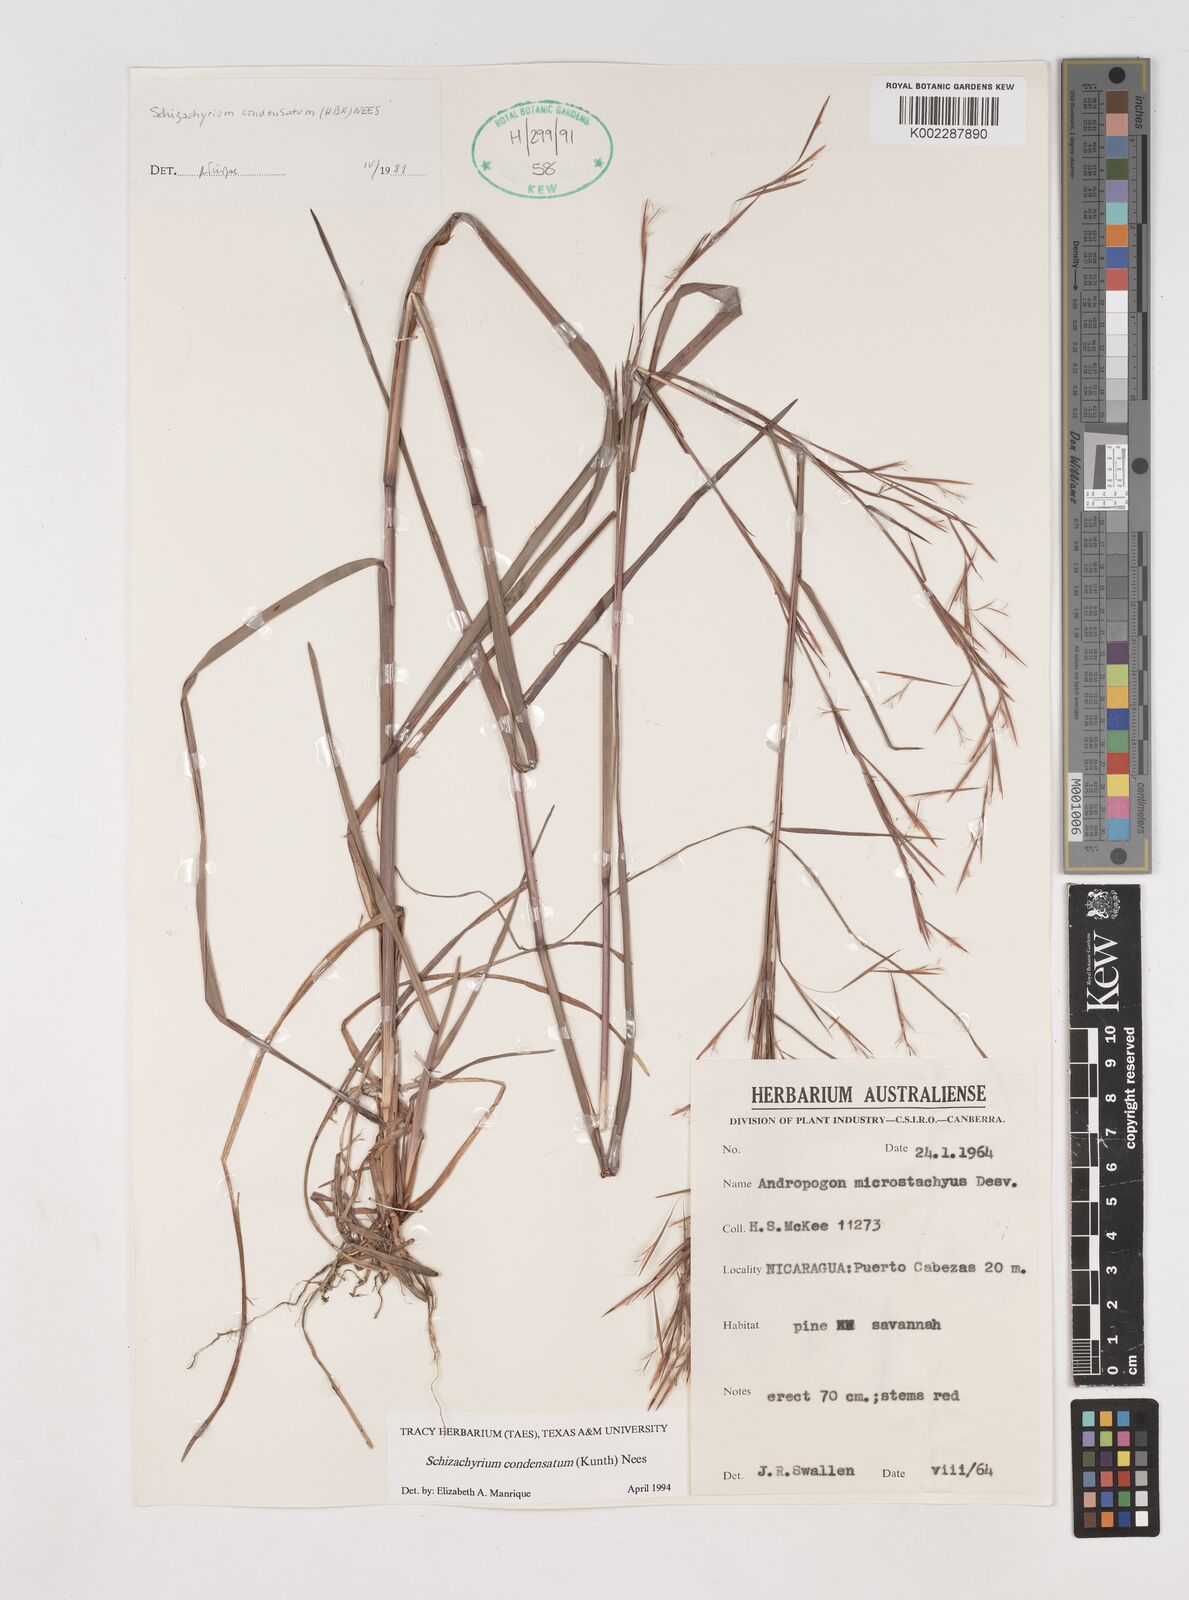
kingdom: Plantae
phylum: Tracheophyta
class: Liliopsida
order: Poales
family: Poaceae
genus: Schizachyrium
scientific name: Schizachyrium condensatum
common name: Bush beardgrass
